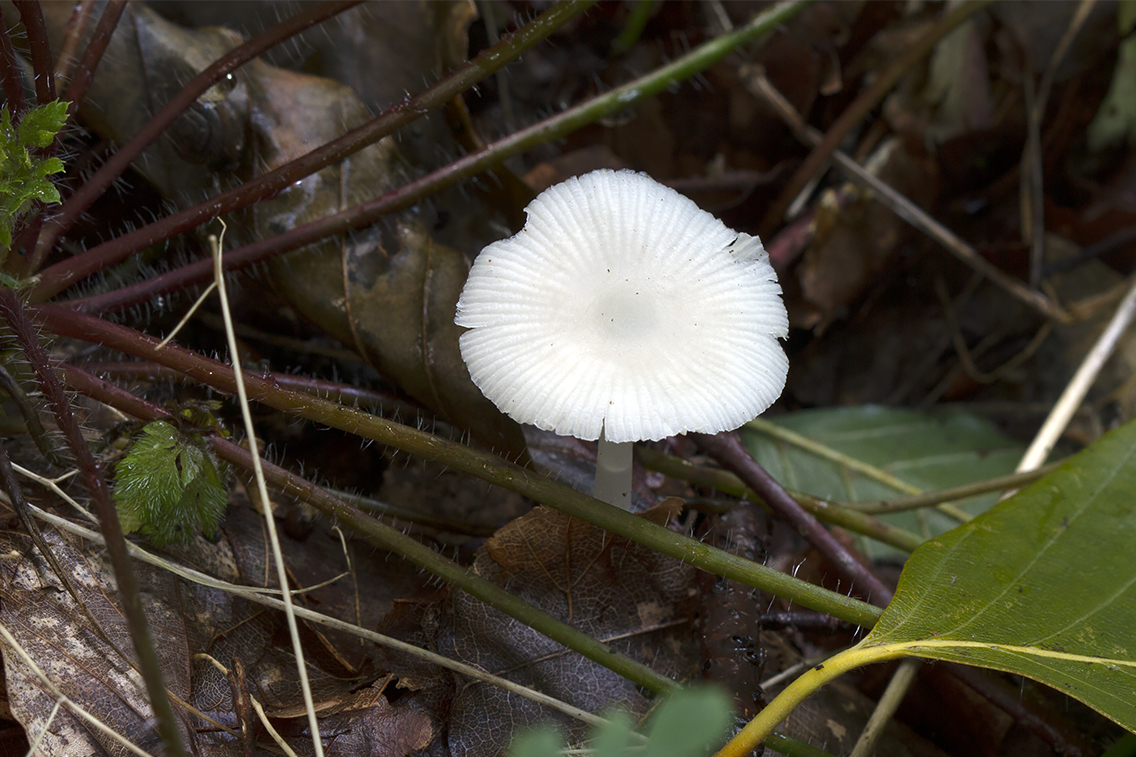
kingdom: Fungi
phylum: Basidiomycota
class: Agaricomycetes
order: Agaricales
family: Mycenaceae
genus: Mycena
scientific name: Mycena pura
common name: Lilac bonnet
